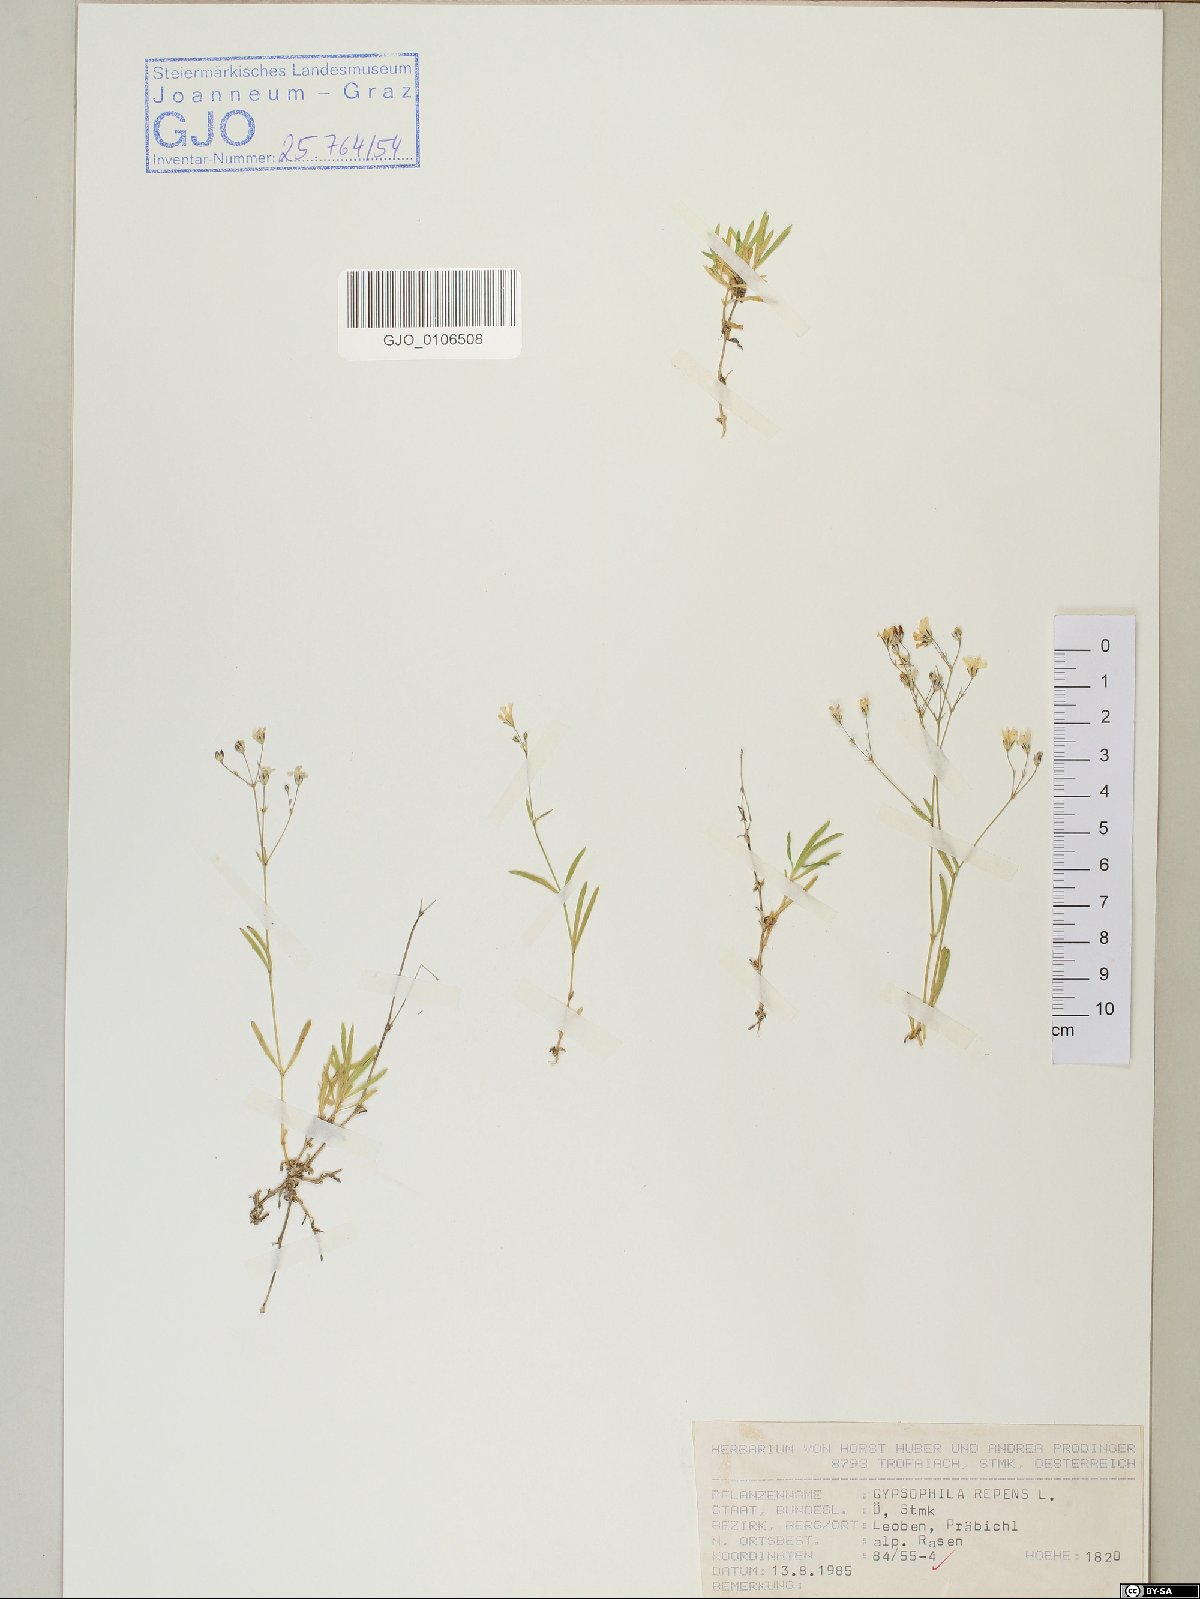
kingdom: Plantae
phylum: Tracheophyta
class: Magnoliopsida
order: Caryophyllales
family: Caryophyllaceae
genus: Gypsophila
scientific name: Gypsophila repens
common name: Creeping baby's-breath
